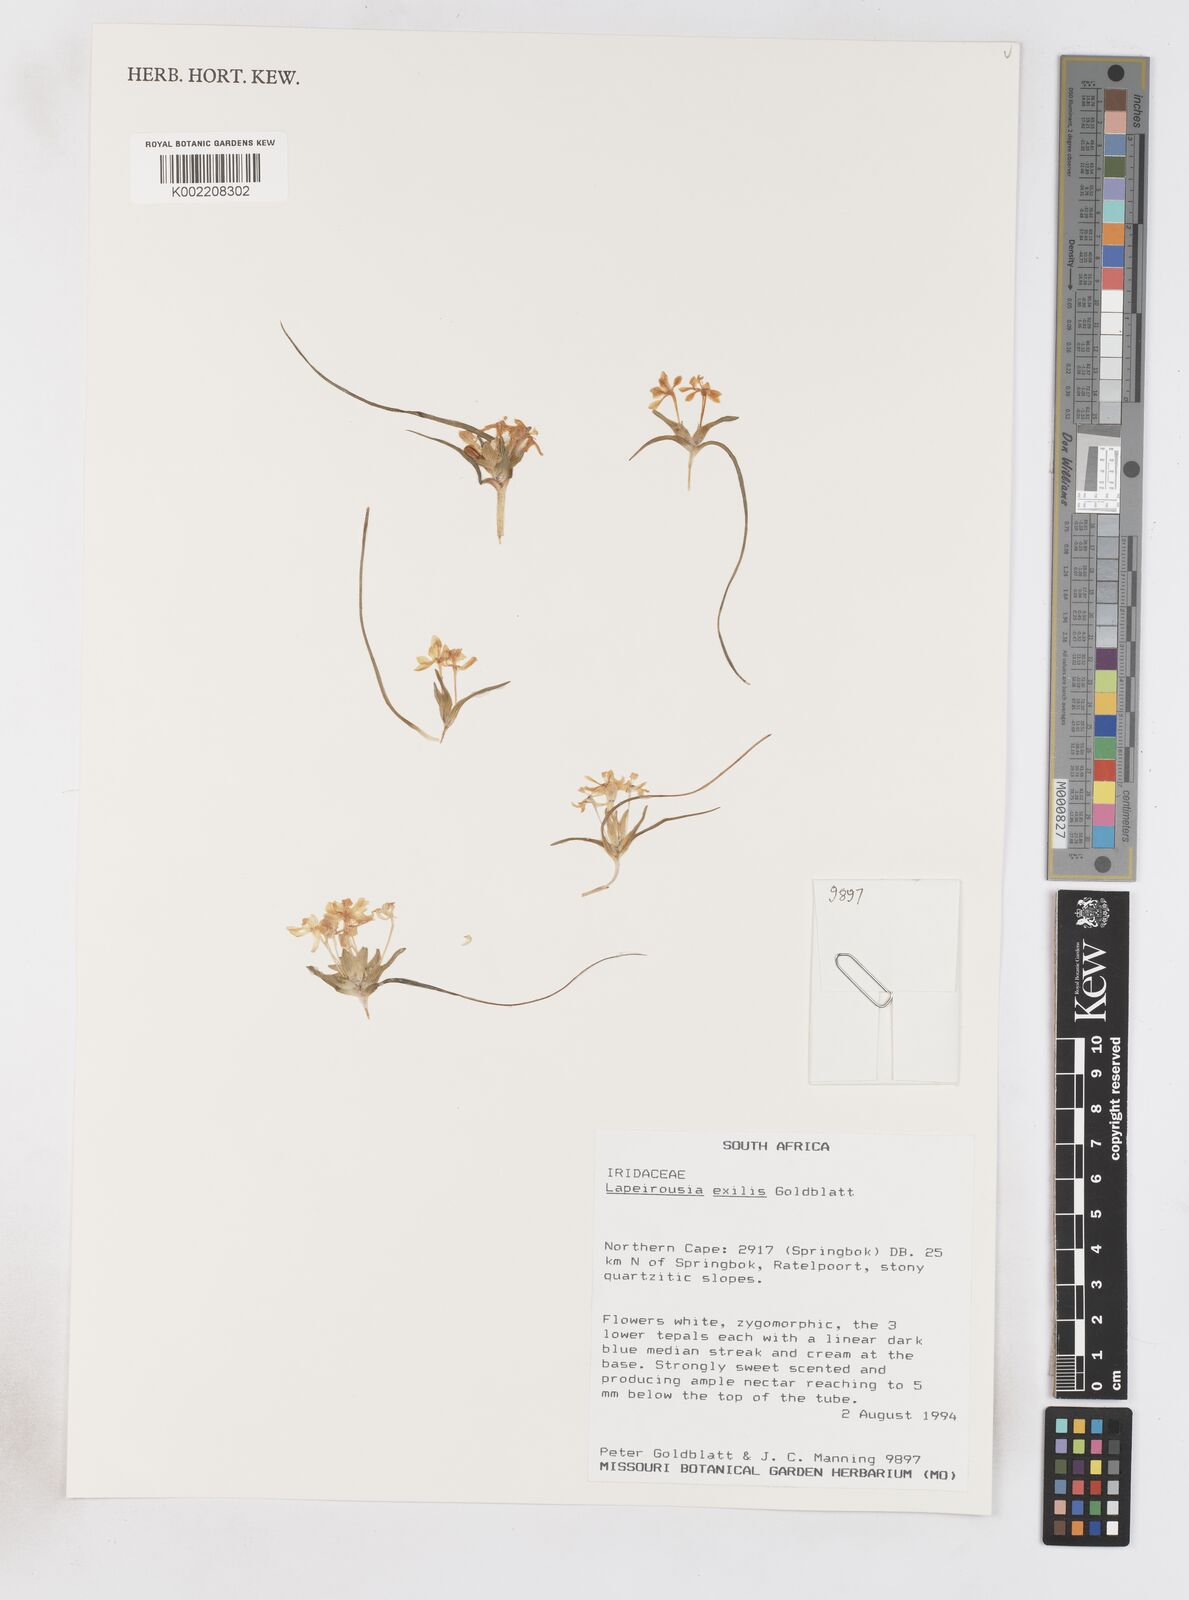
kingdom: Plantae
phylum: Tracheophyta
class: Liliopsida
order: Asparagales
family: Iridaceae
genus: Lapeirousia
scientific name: Lapeirousia exilis
